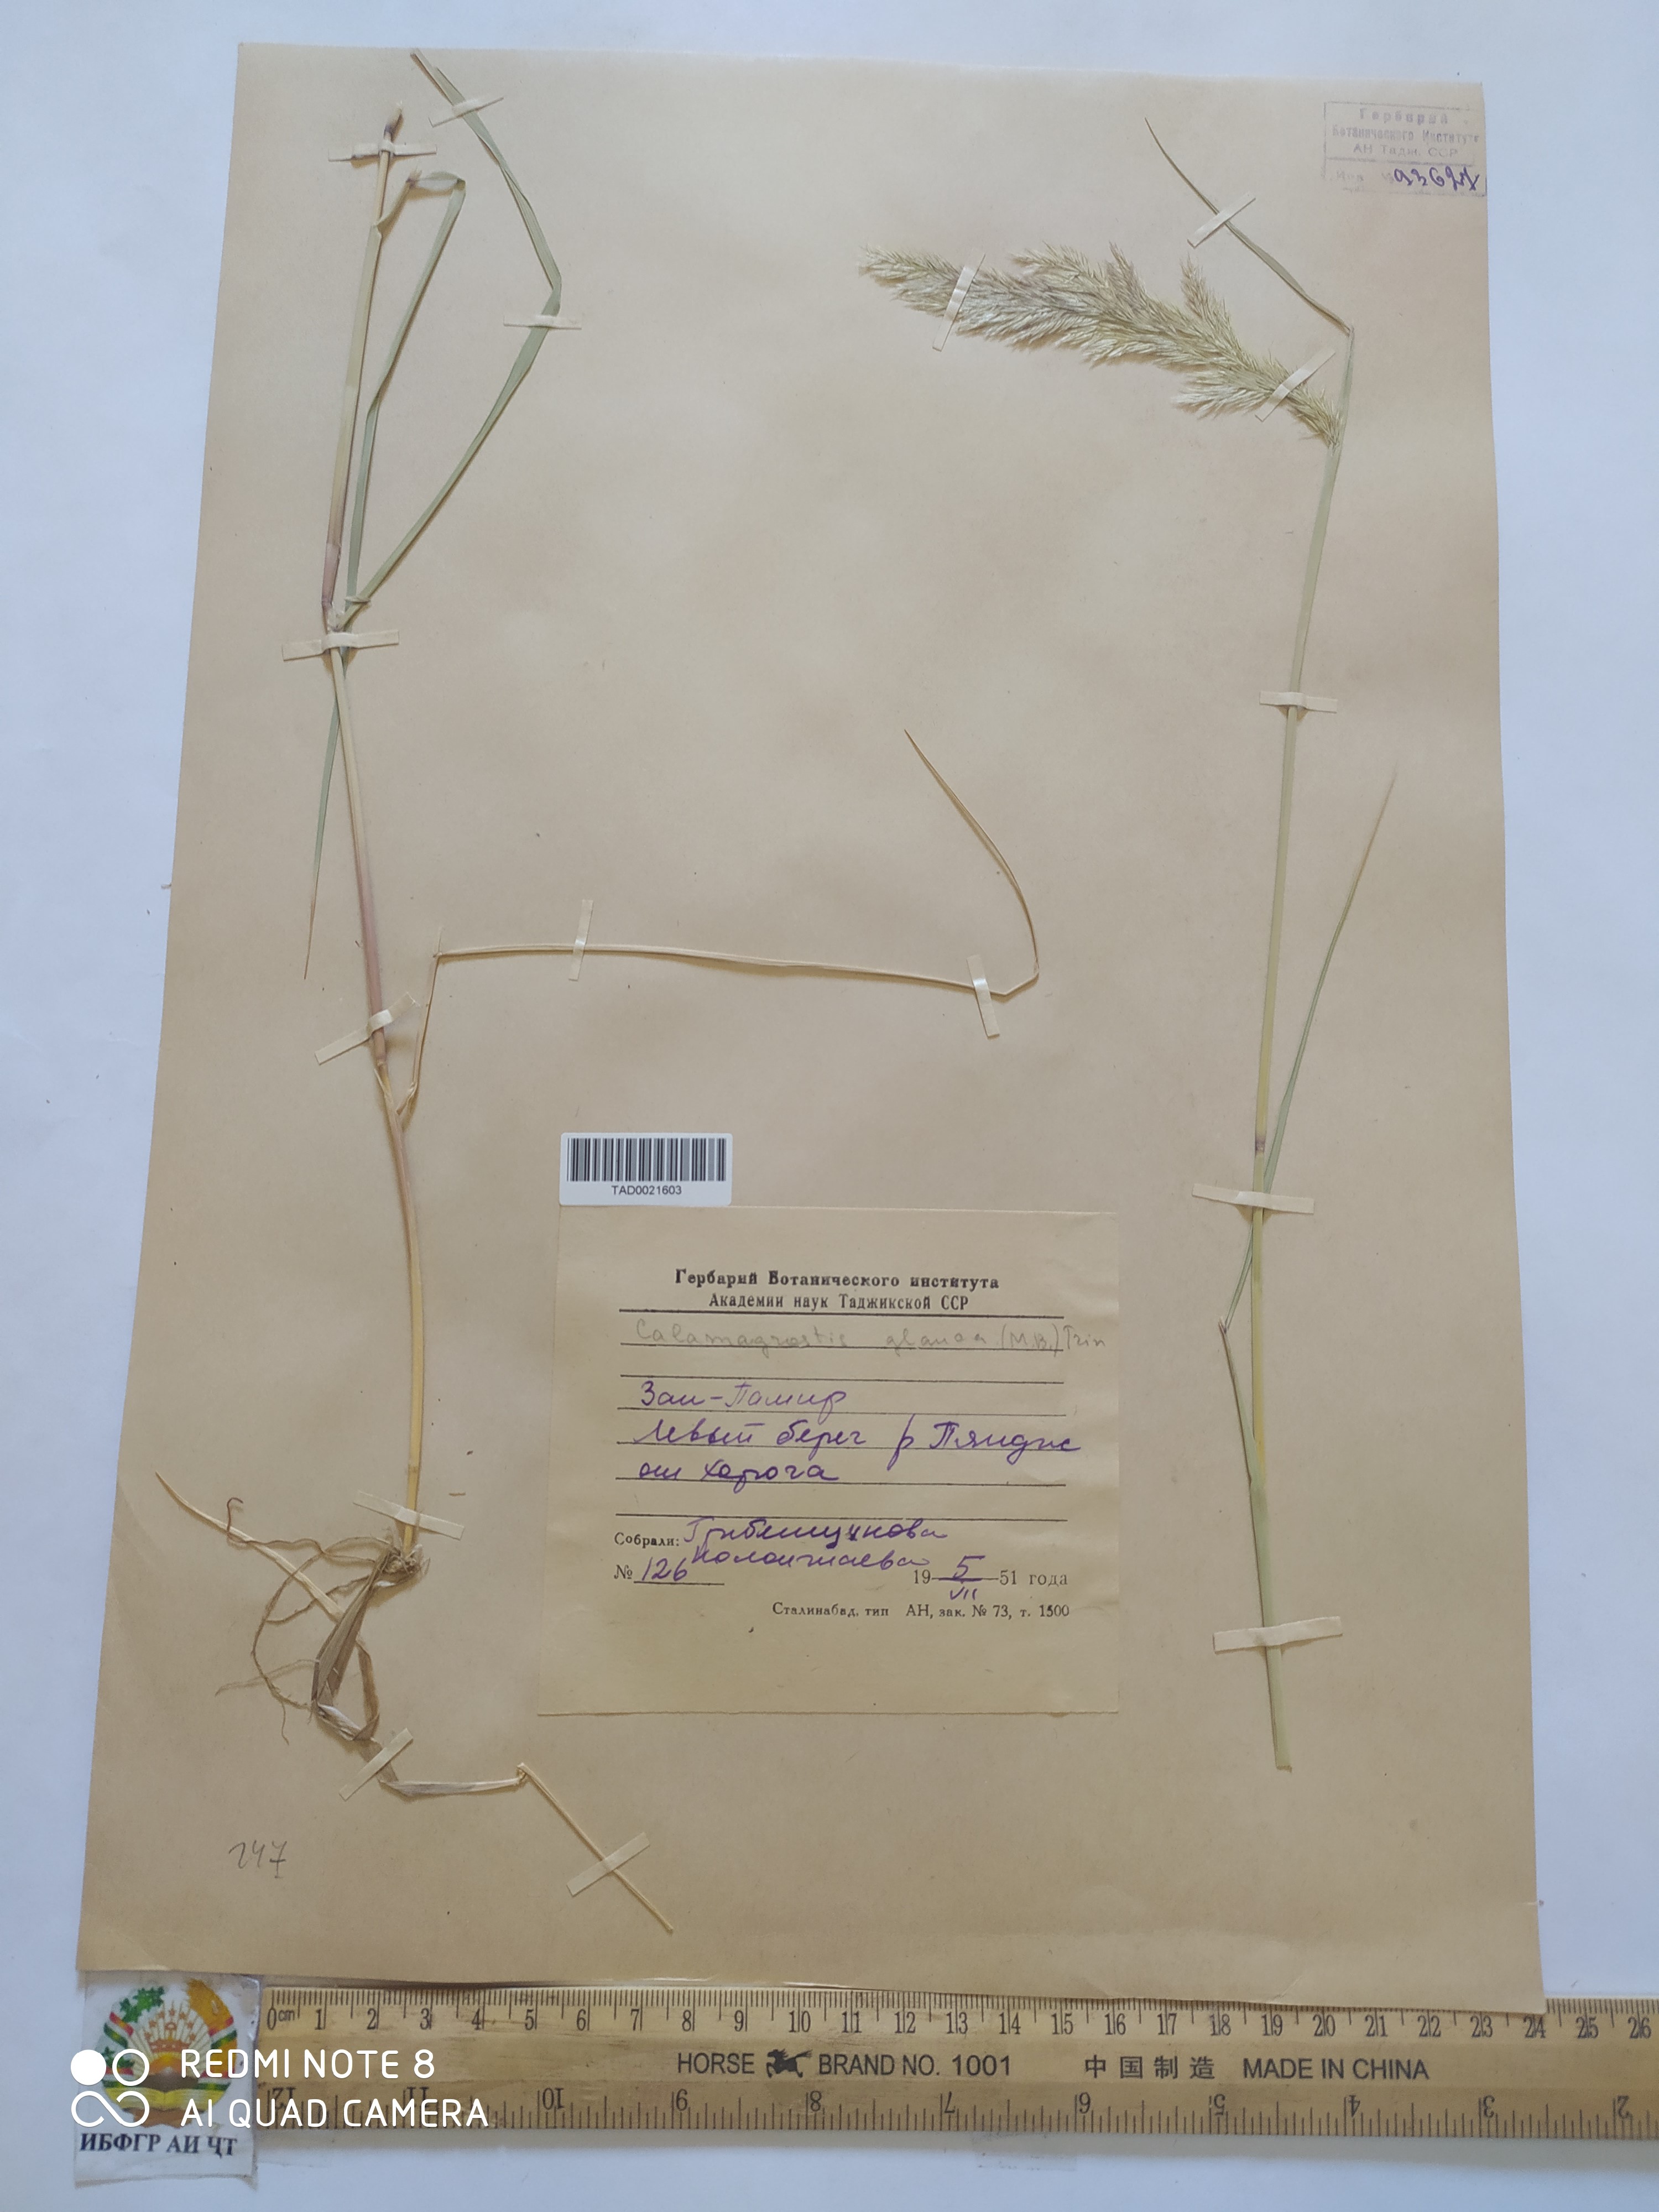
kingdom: Plantae
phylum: Tracheophyta
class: Liliopsida
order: Poales
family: Poaceae
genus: Calamagrostis
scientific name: Calamagrostis pseudophragmites
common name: Coastal small-reed
